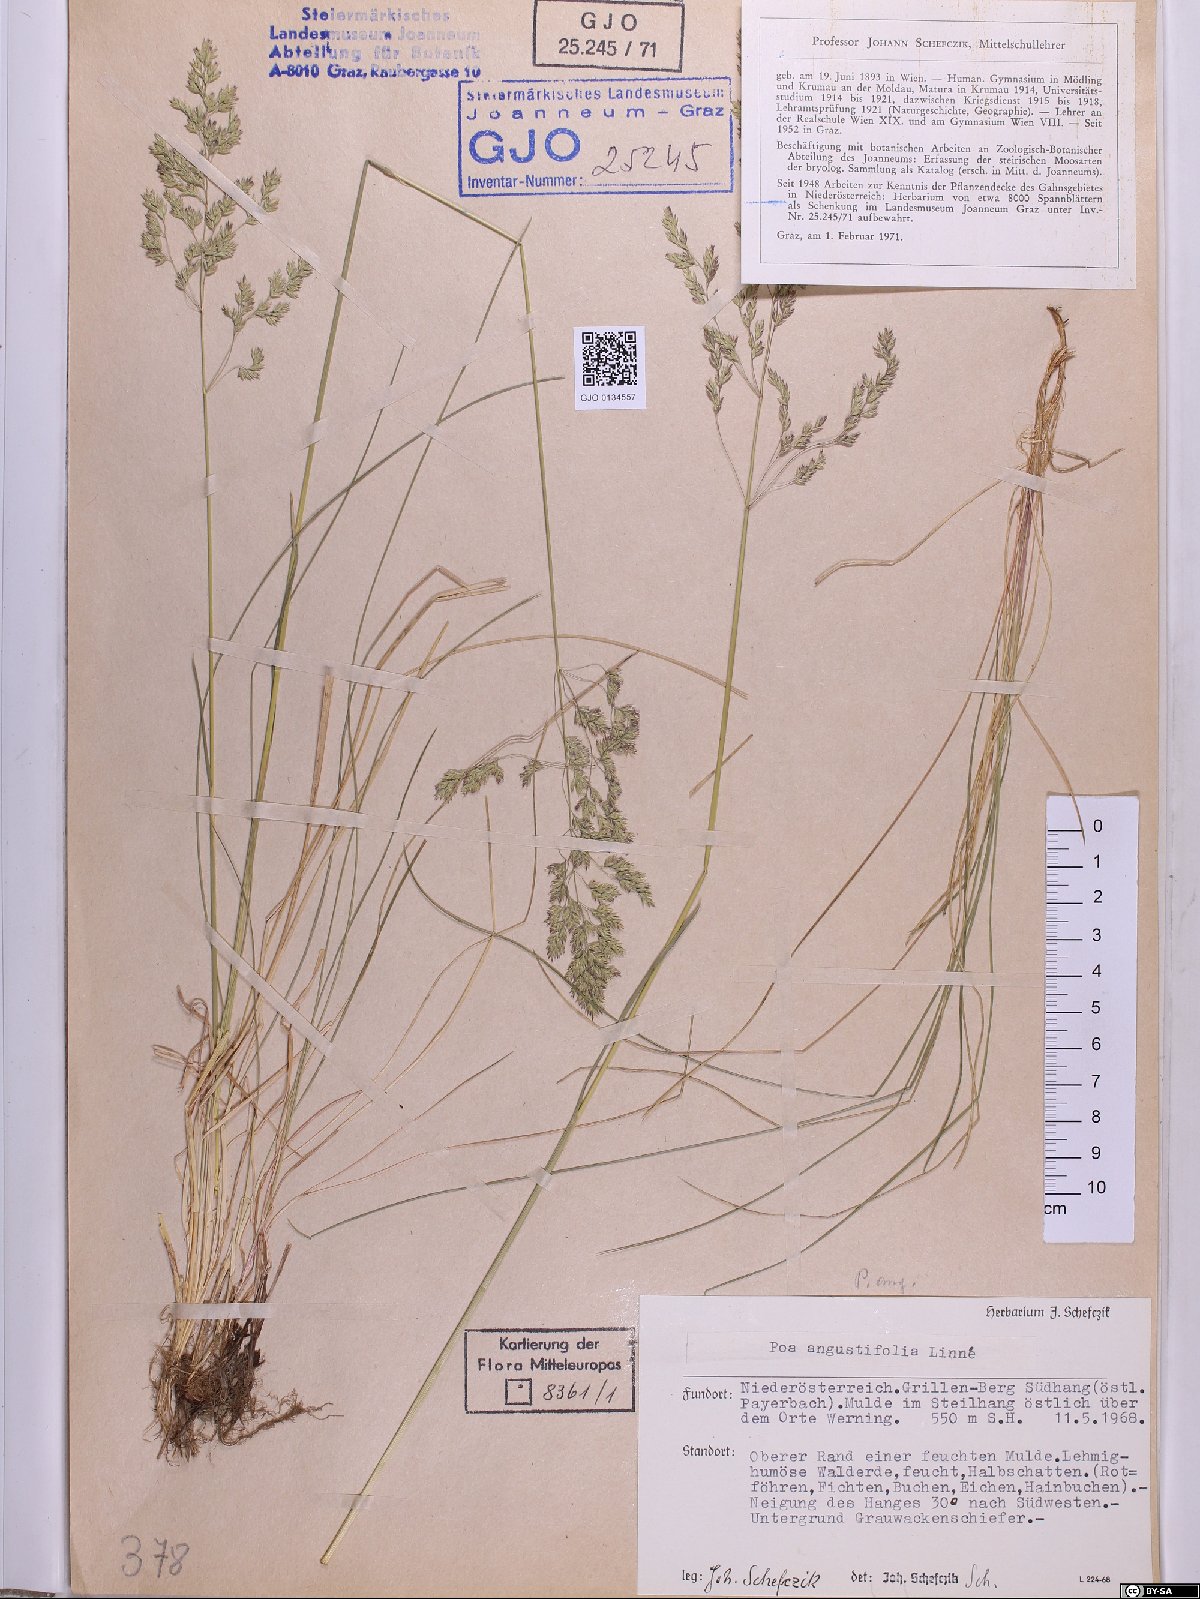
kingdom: Plantae
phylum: Tracheophyta
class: Liliopsida
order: Poales
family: Poaceae
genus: Poa
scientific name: Poa angustifolia
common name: Narrow-leaved meadow-grass
